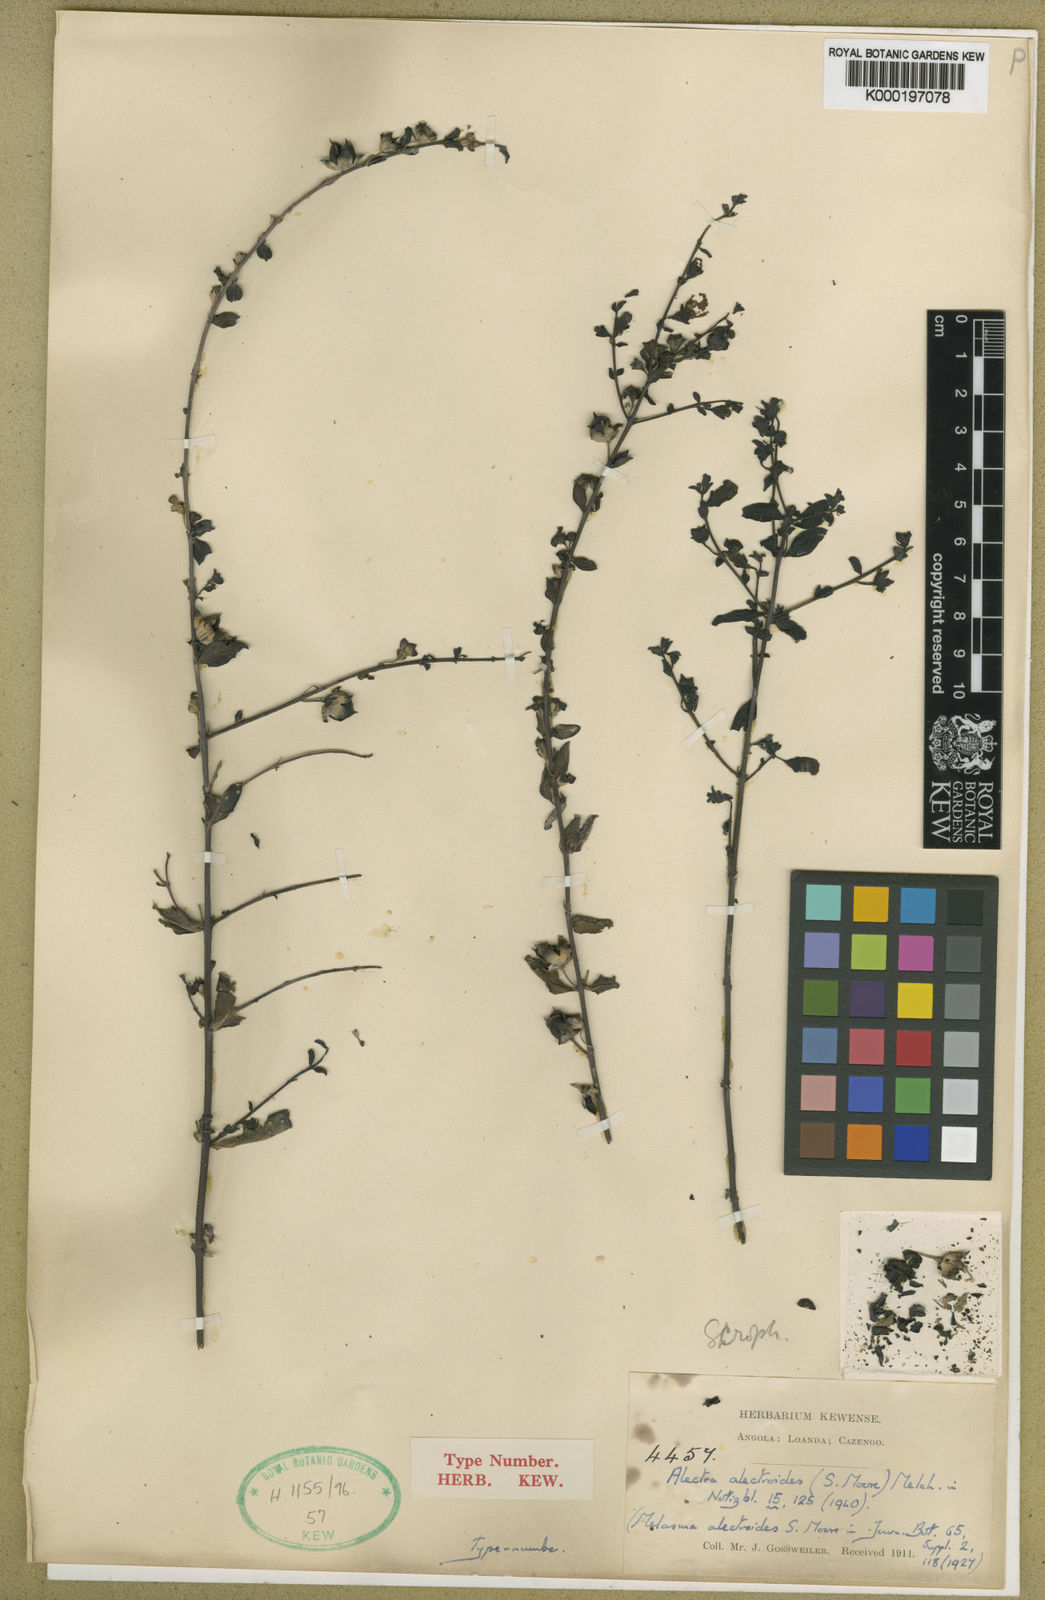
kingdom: Plantae
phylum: Tracheophyta
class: Magnoliopsida
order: Lamiales
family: Orobanchaceae
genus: Alectra
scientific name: Alectra alectroides
